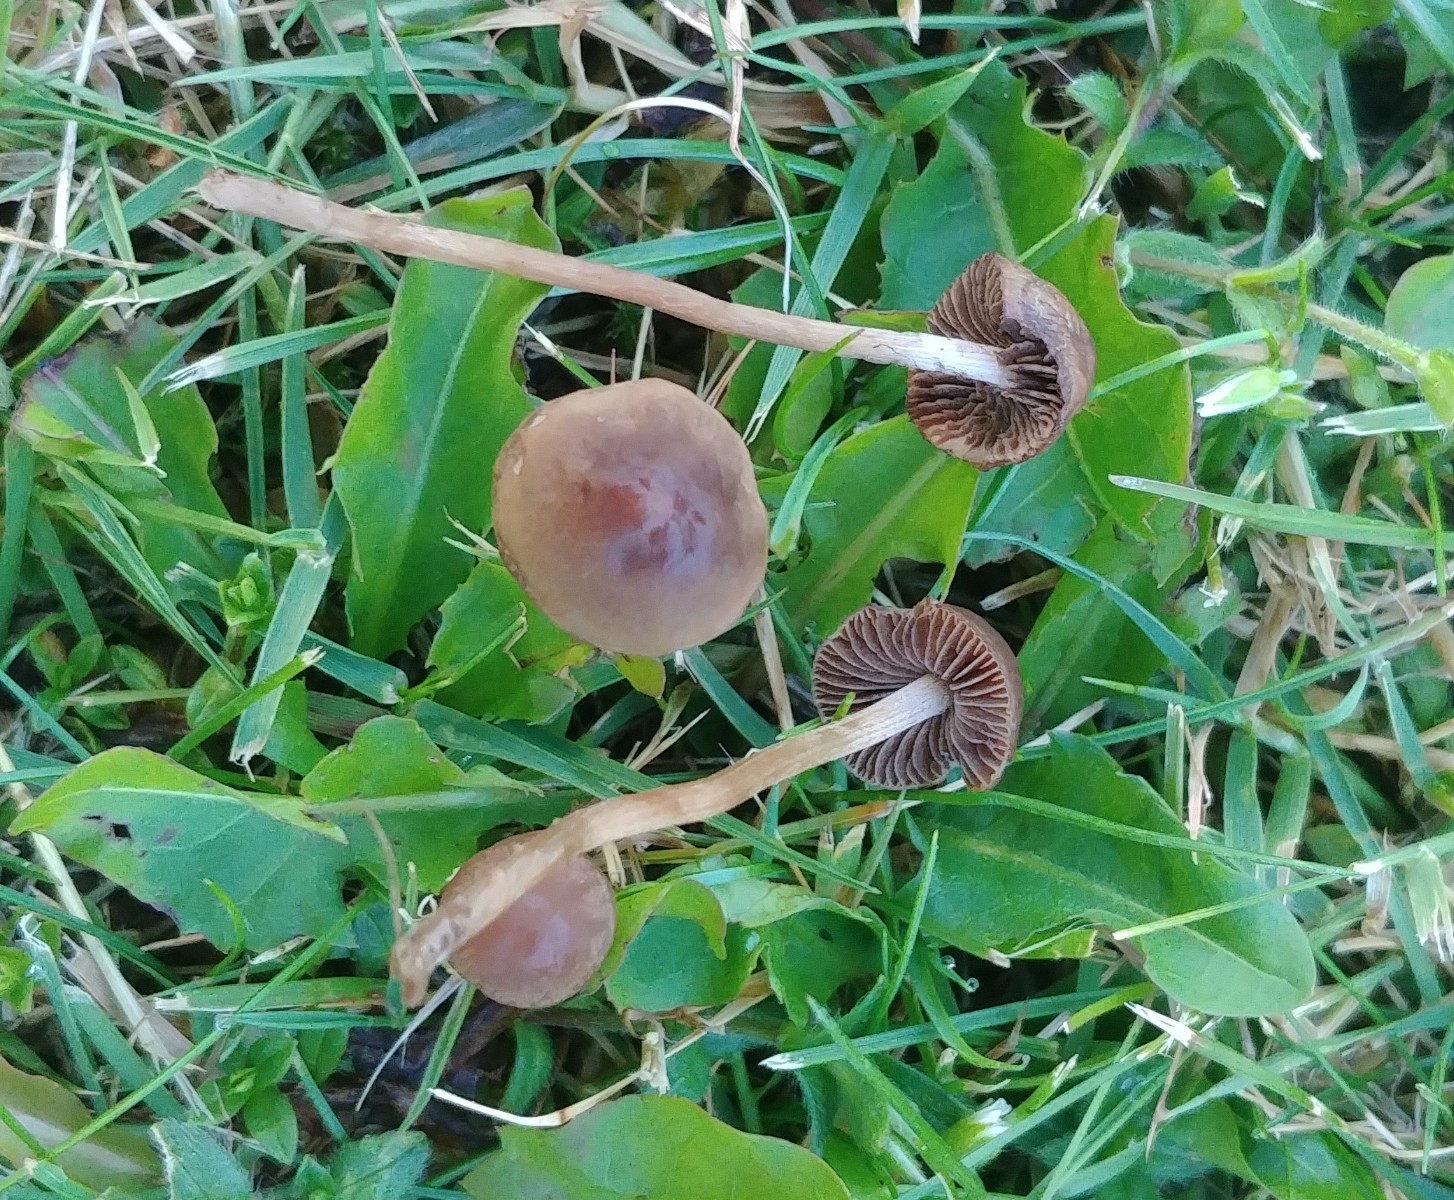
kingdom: Fungi
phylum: Basidiomycota
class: Agaricomycetes
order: Agaricales
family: Bolbitiaceae
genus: Panaeolina
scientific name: Panaeolina foenisecii
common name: høslætsvamp
